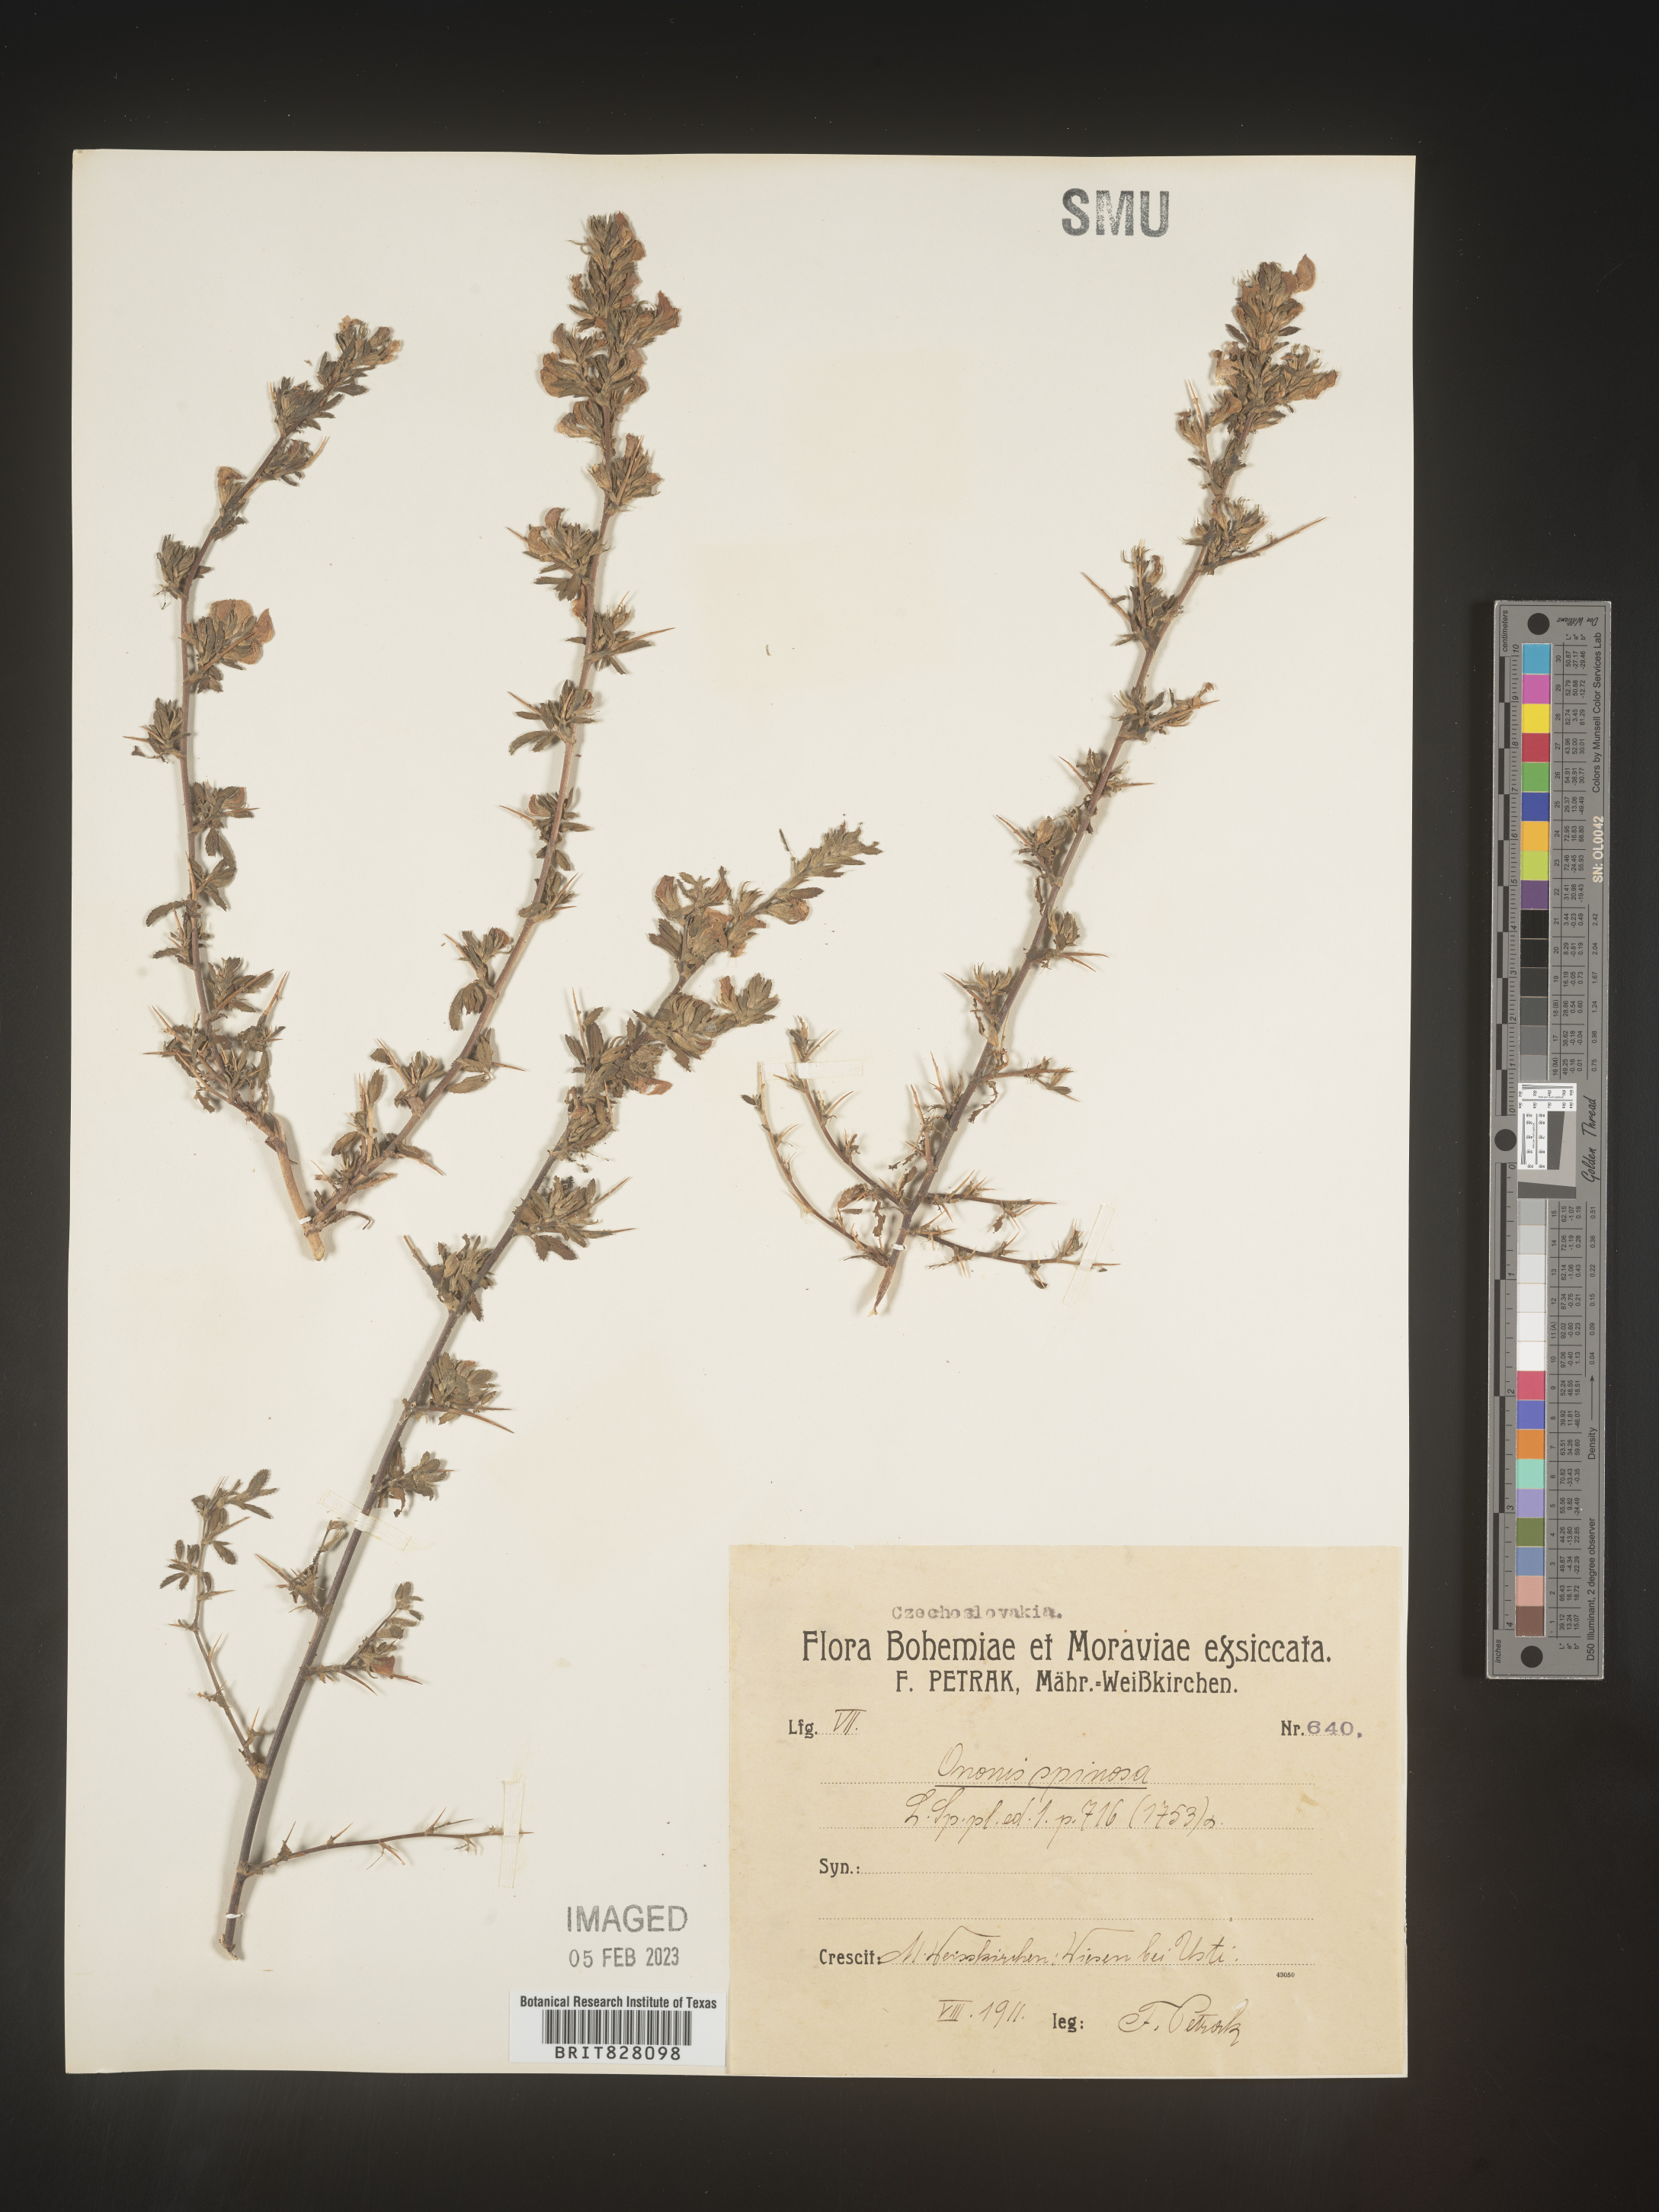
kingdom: Plantae
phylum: Tracheophyta
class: Magnoliopsida
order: Fabales
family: Fabaceae
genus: Ononis
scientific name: Ononis
